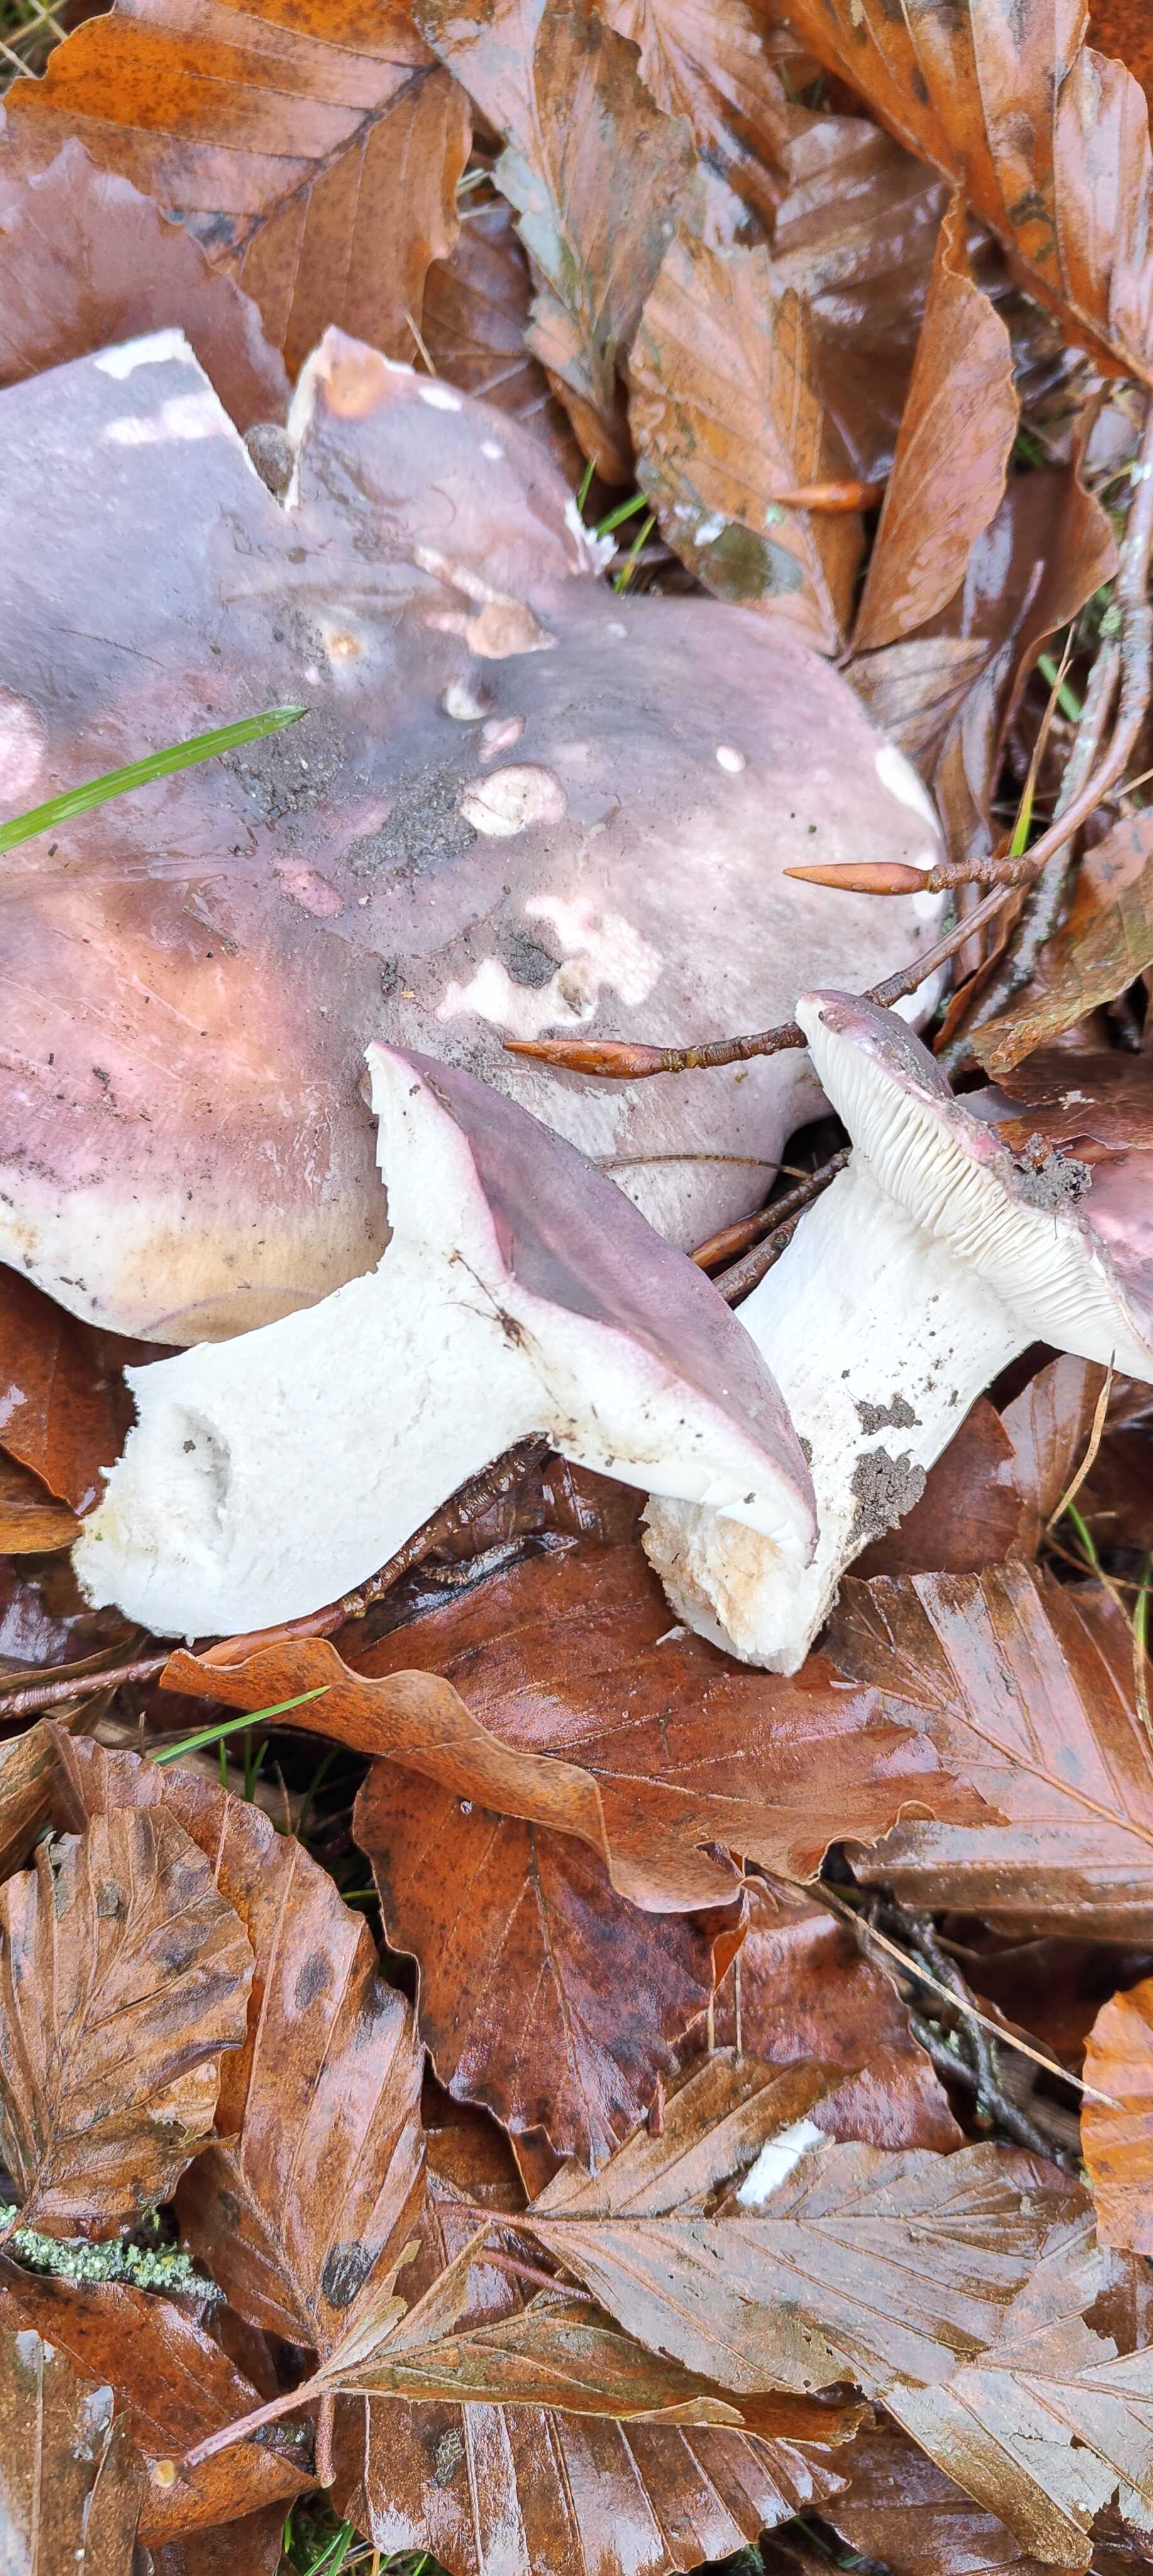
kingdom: Fungi
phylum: Basidiomycota
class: Agaricomycetes
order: Russulales
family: Russulaceae
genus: Russula
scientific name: Russula cyanoxantha
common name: broget skørhat
